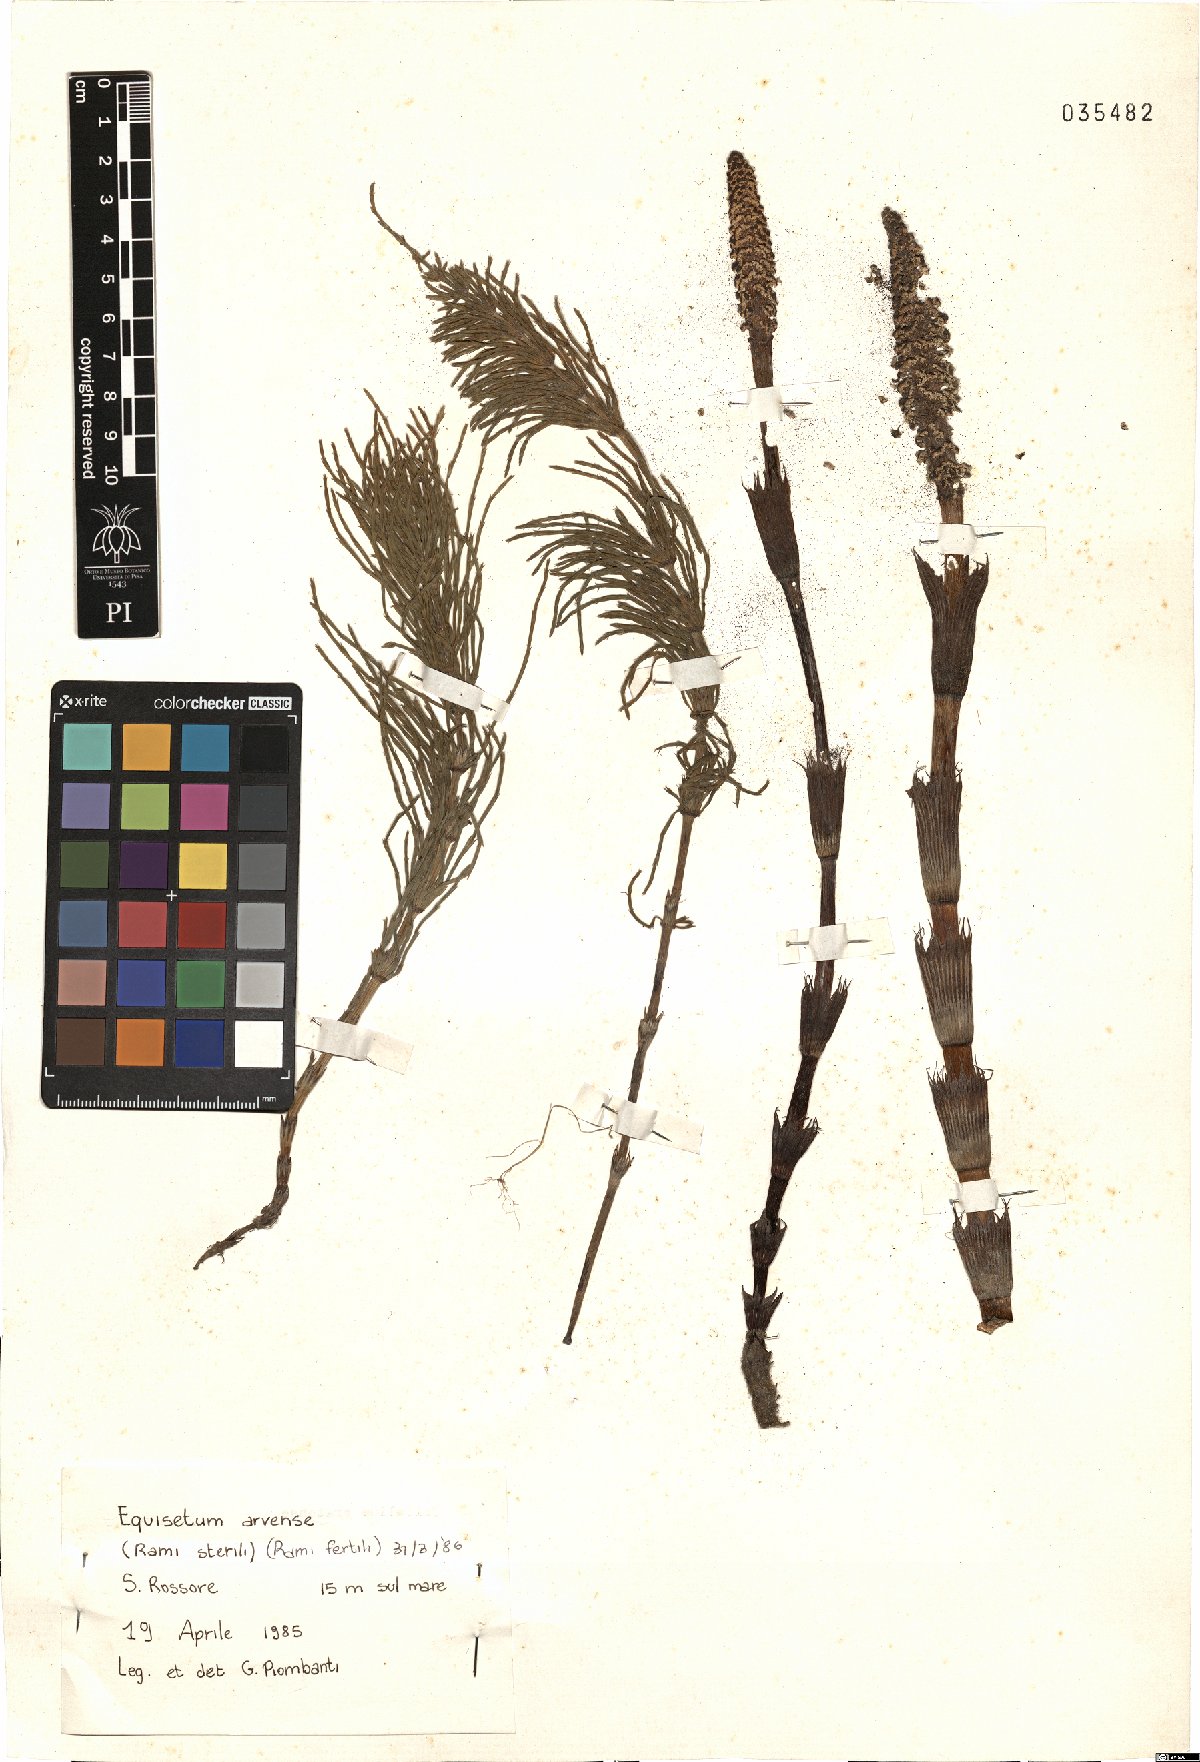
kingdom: Plantae
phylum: Tracheophyta
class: Polypodiopsida
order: Equisetales
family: Equisetaceae
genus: Equisetum
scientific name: Equisetum arvense
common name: Field horsetail
